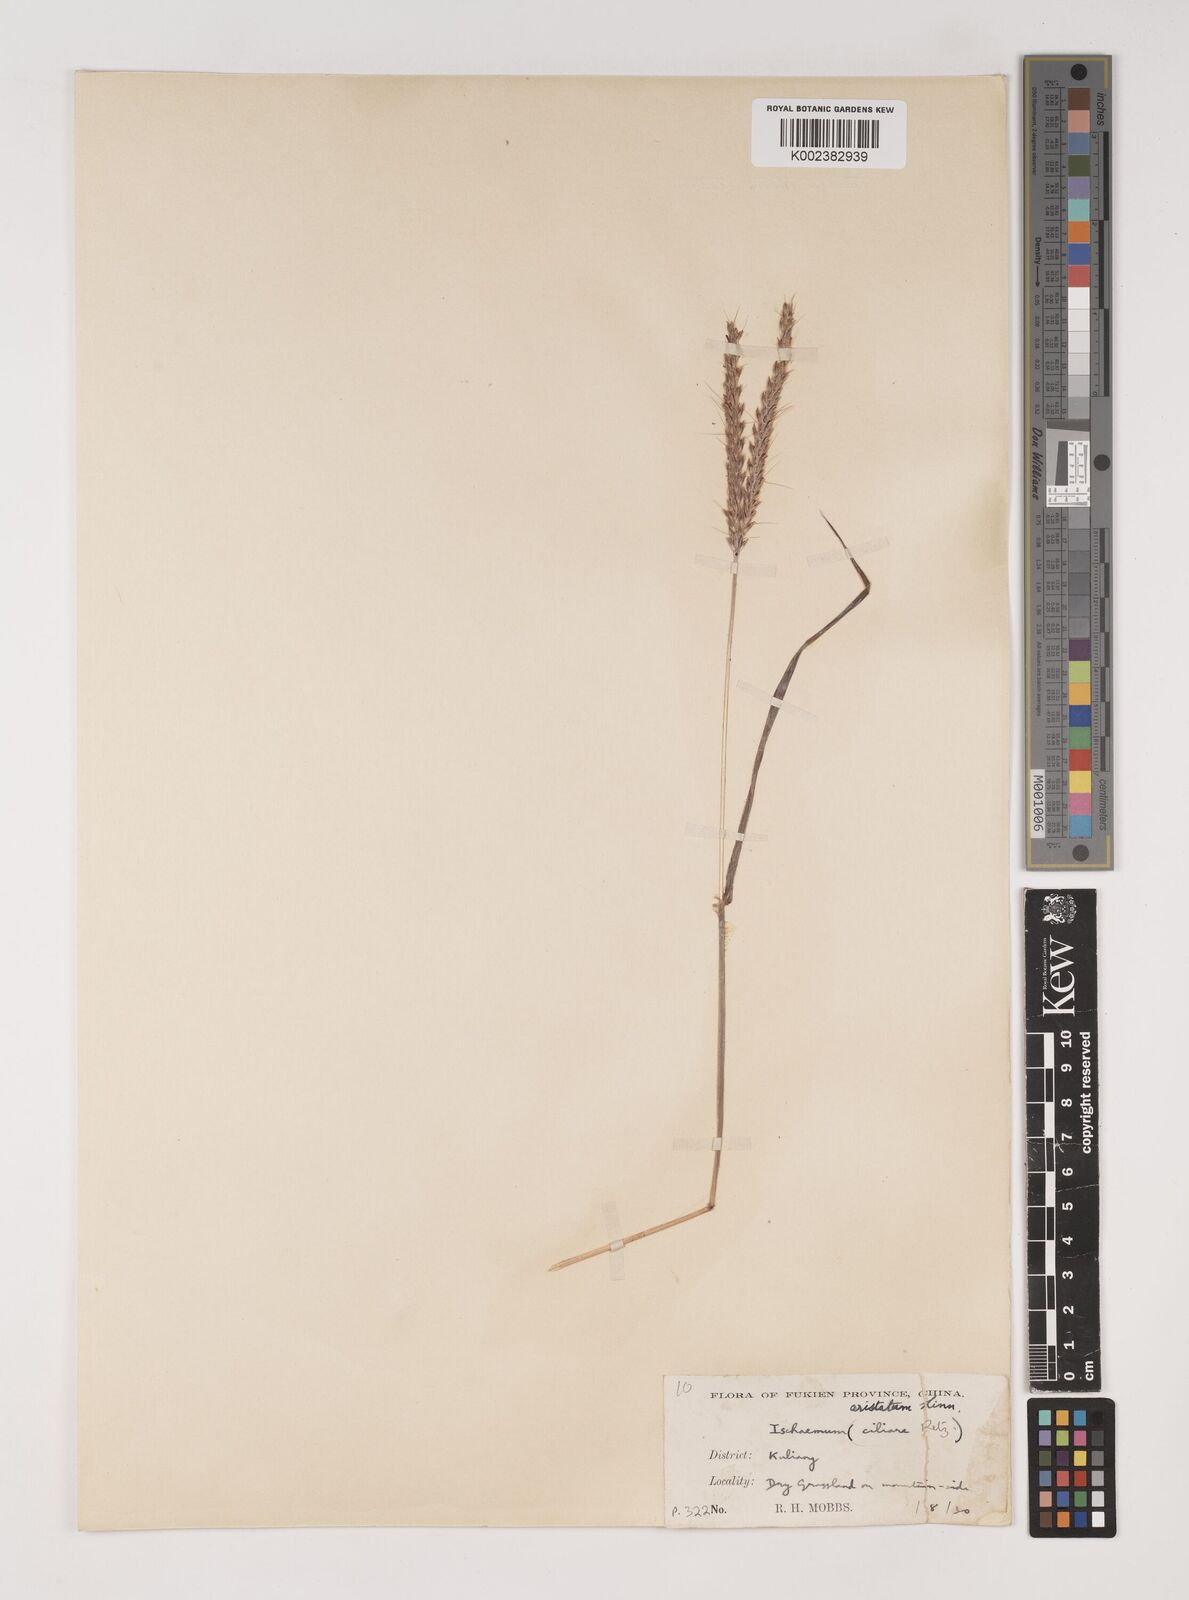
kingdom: Plantae
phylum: Tracheophyta
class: Liliopsida
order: Poales
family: Poaceae
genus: Polytrias
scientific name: Polytrias indica
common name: Indian murainagrass
